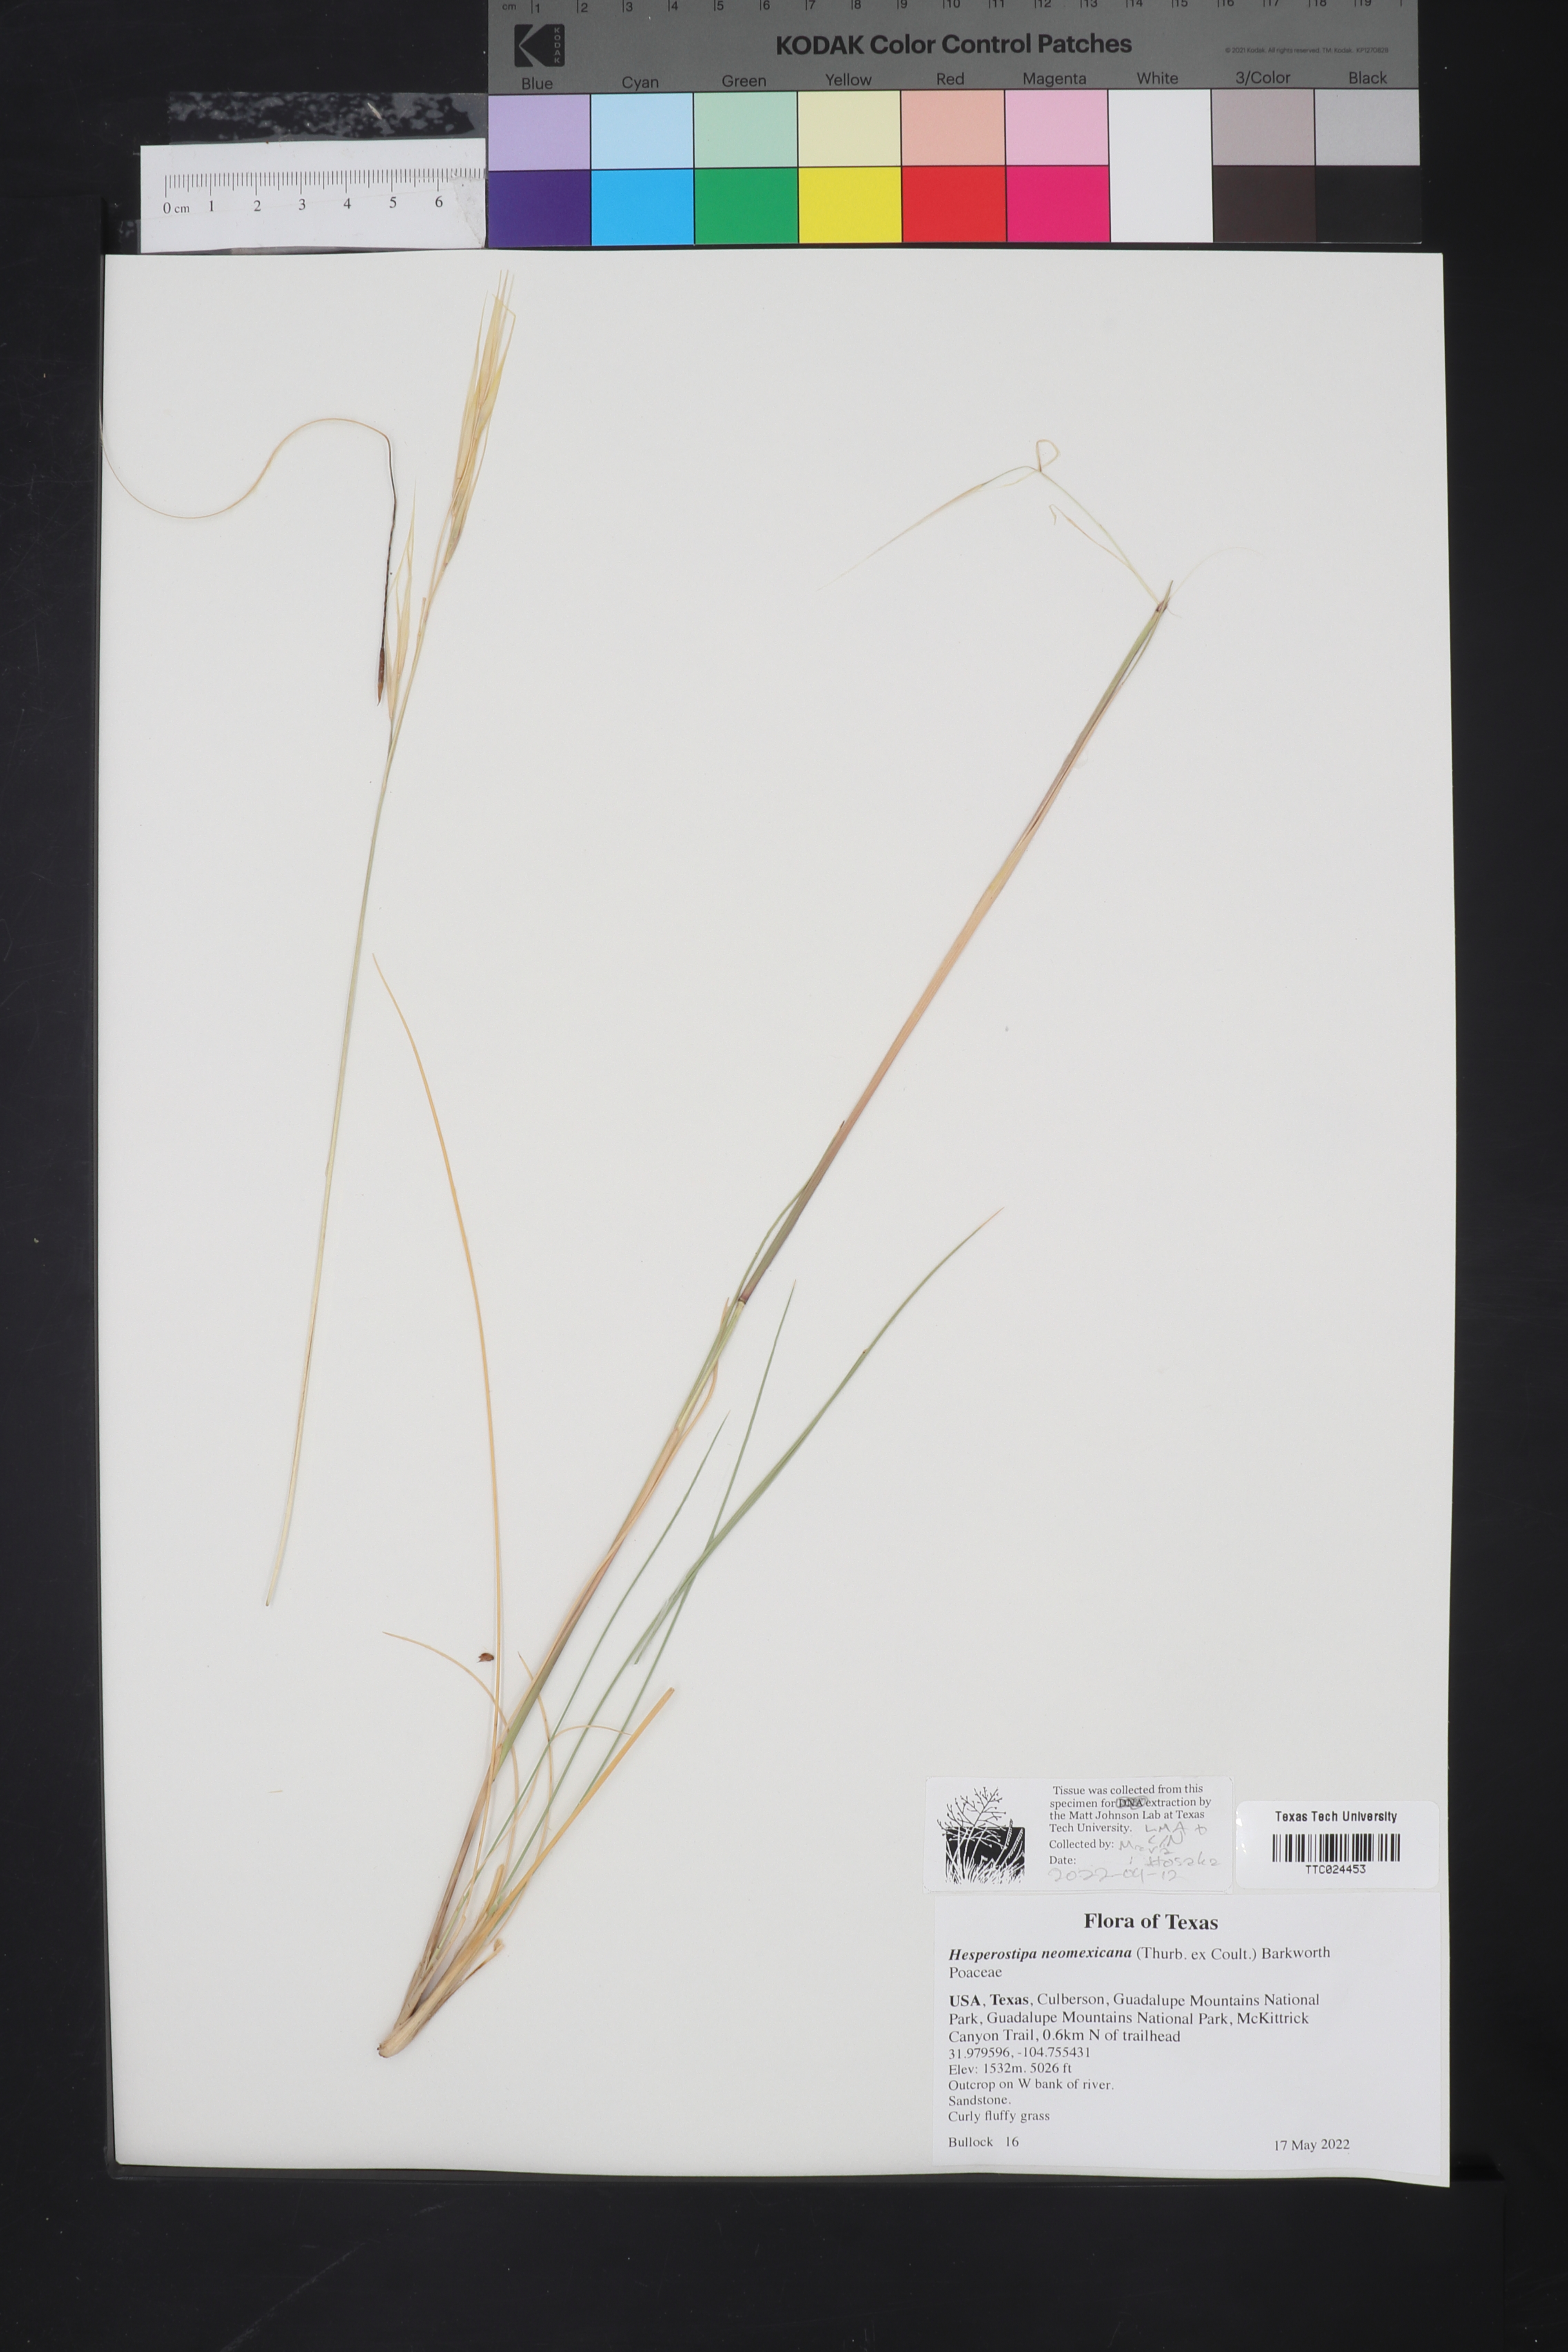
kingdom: Plantae
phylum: Tracheophyta
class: Liliopsida
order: Poales
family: Poaceae
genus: Hesperostipa
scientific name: Hesperostipa neomexicana
